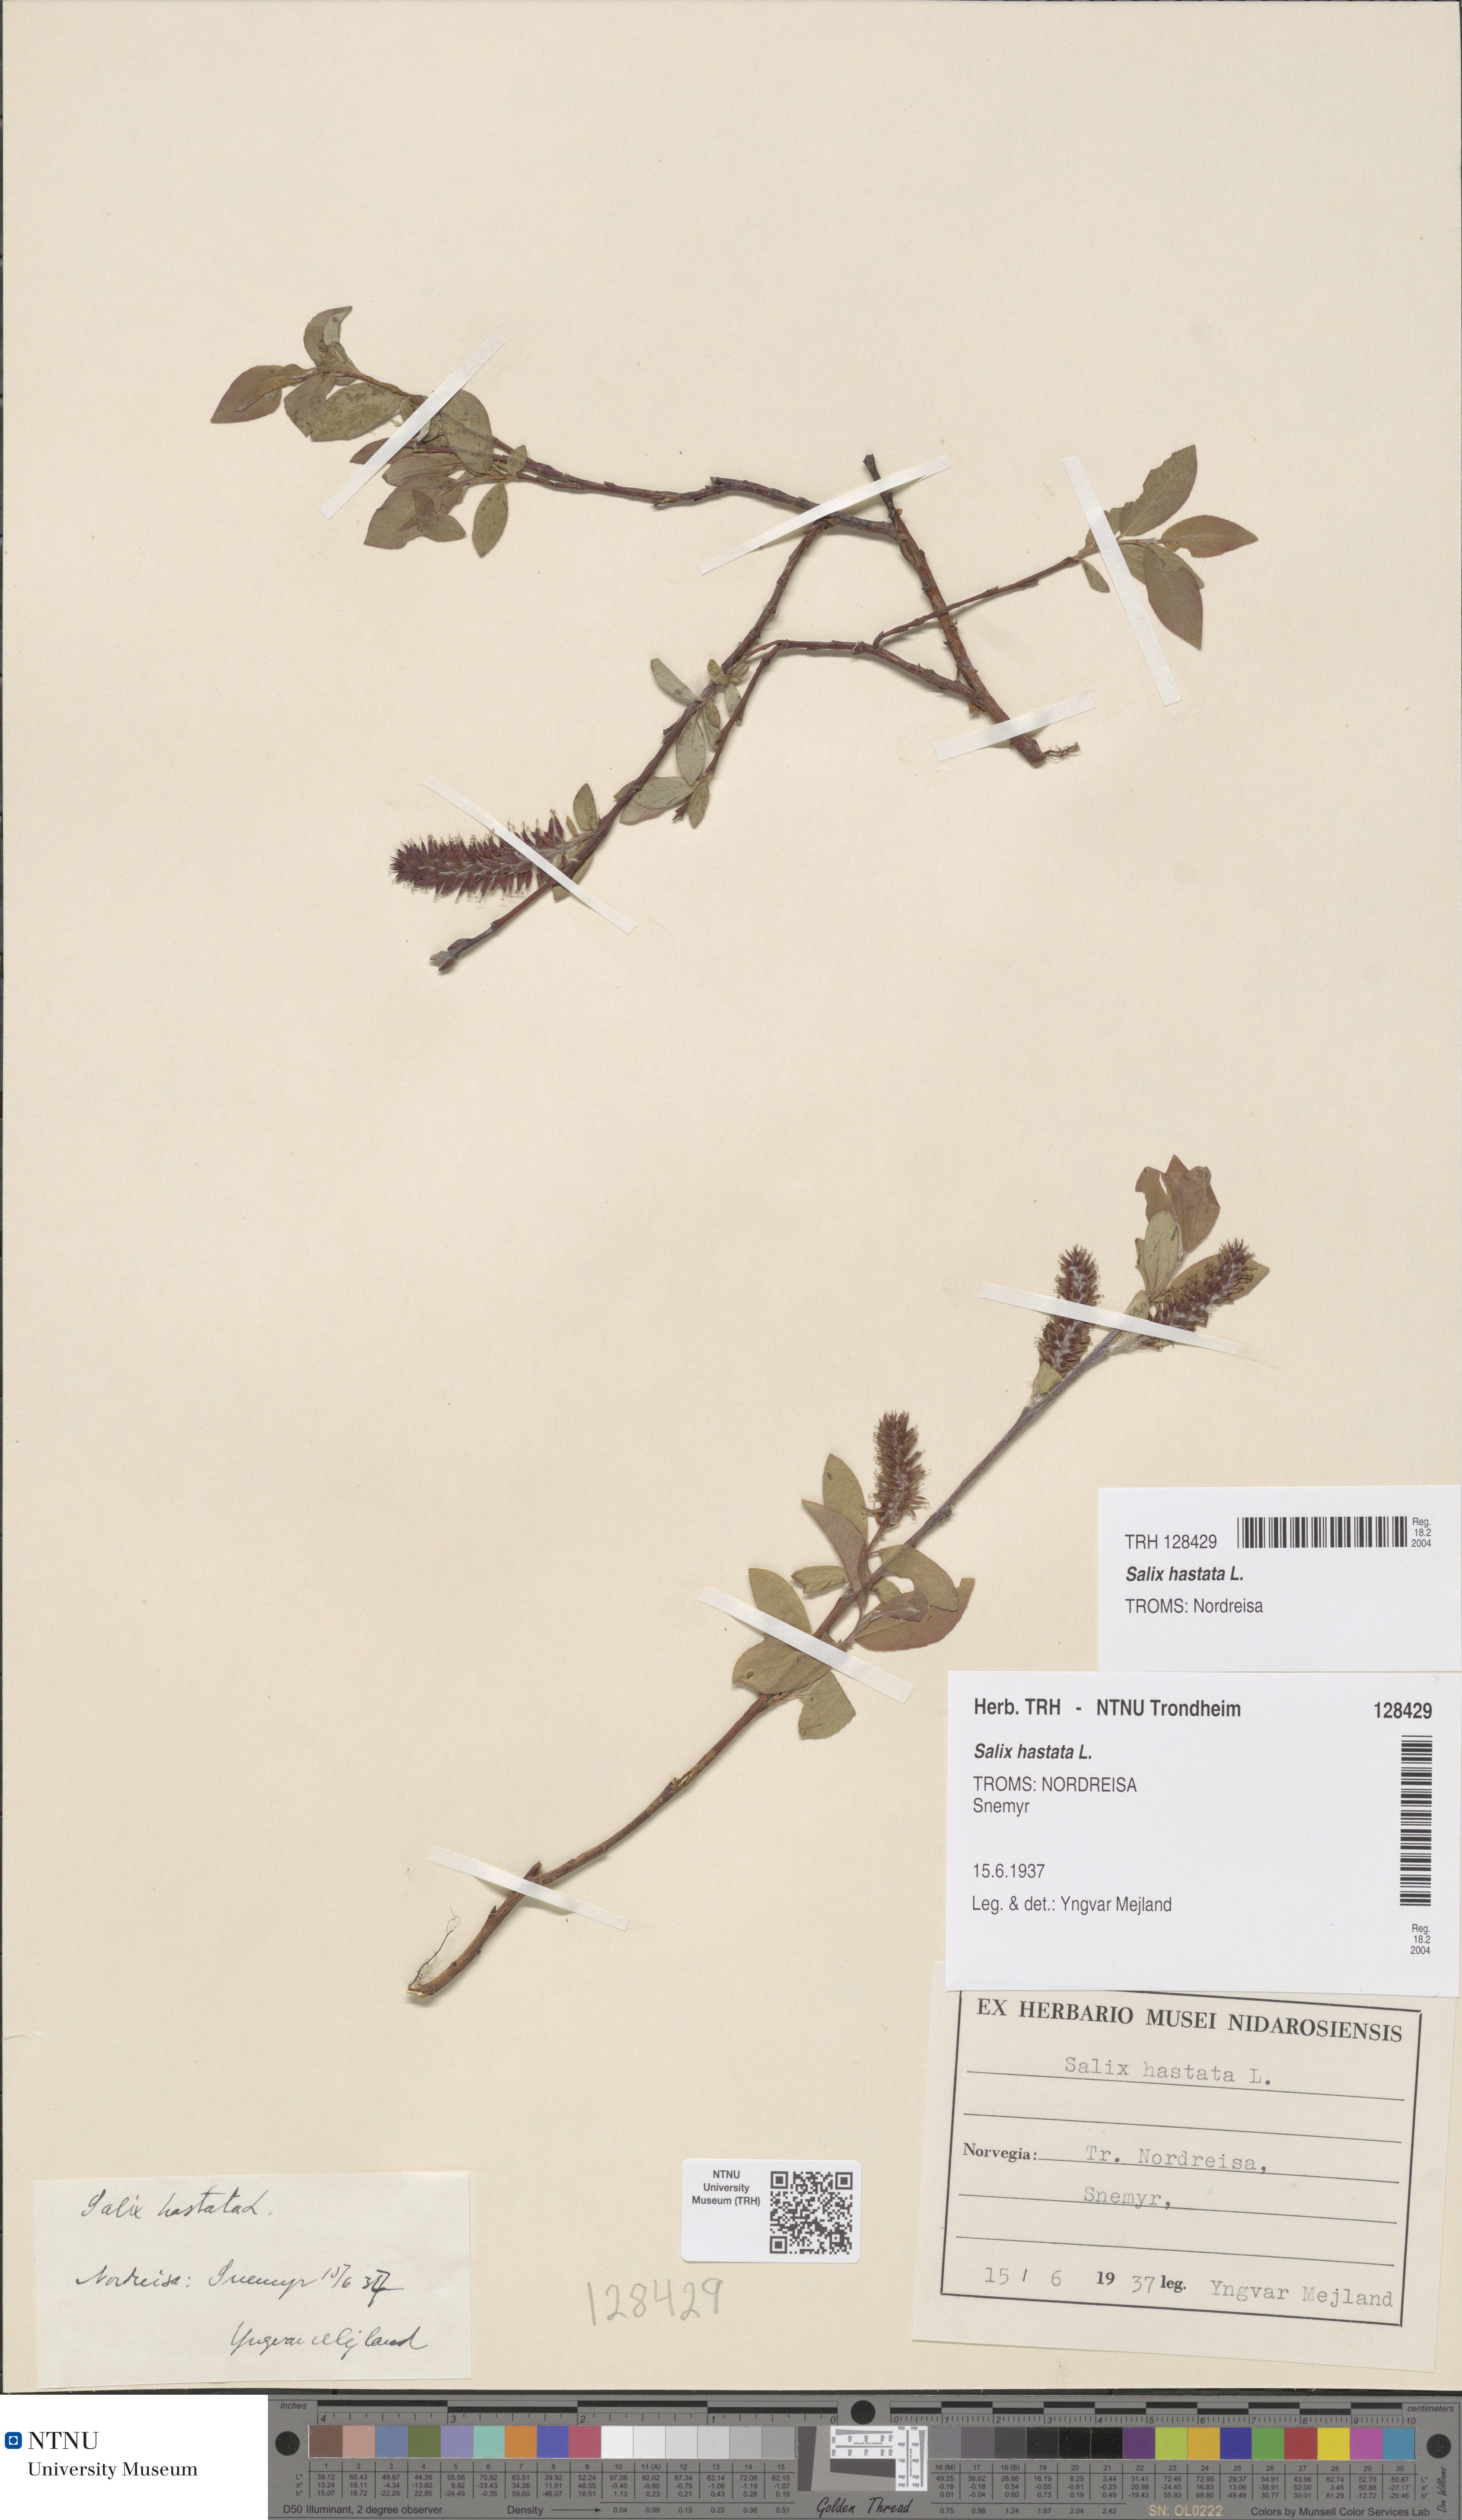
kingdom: Plantae
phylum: Tracheophyta
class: Magnoliopsida
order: Malpighiales
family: Salicaceae
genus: Salix
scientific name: Salix hastata
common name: Halberd willow
